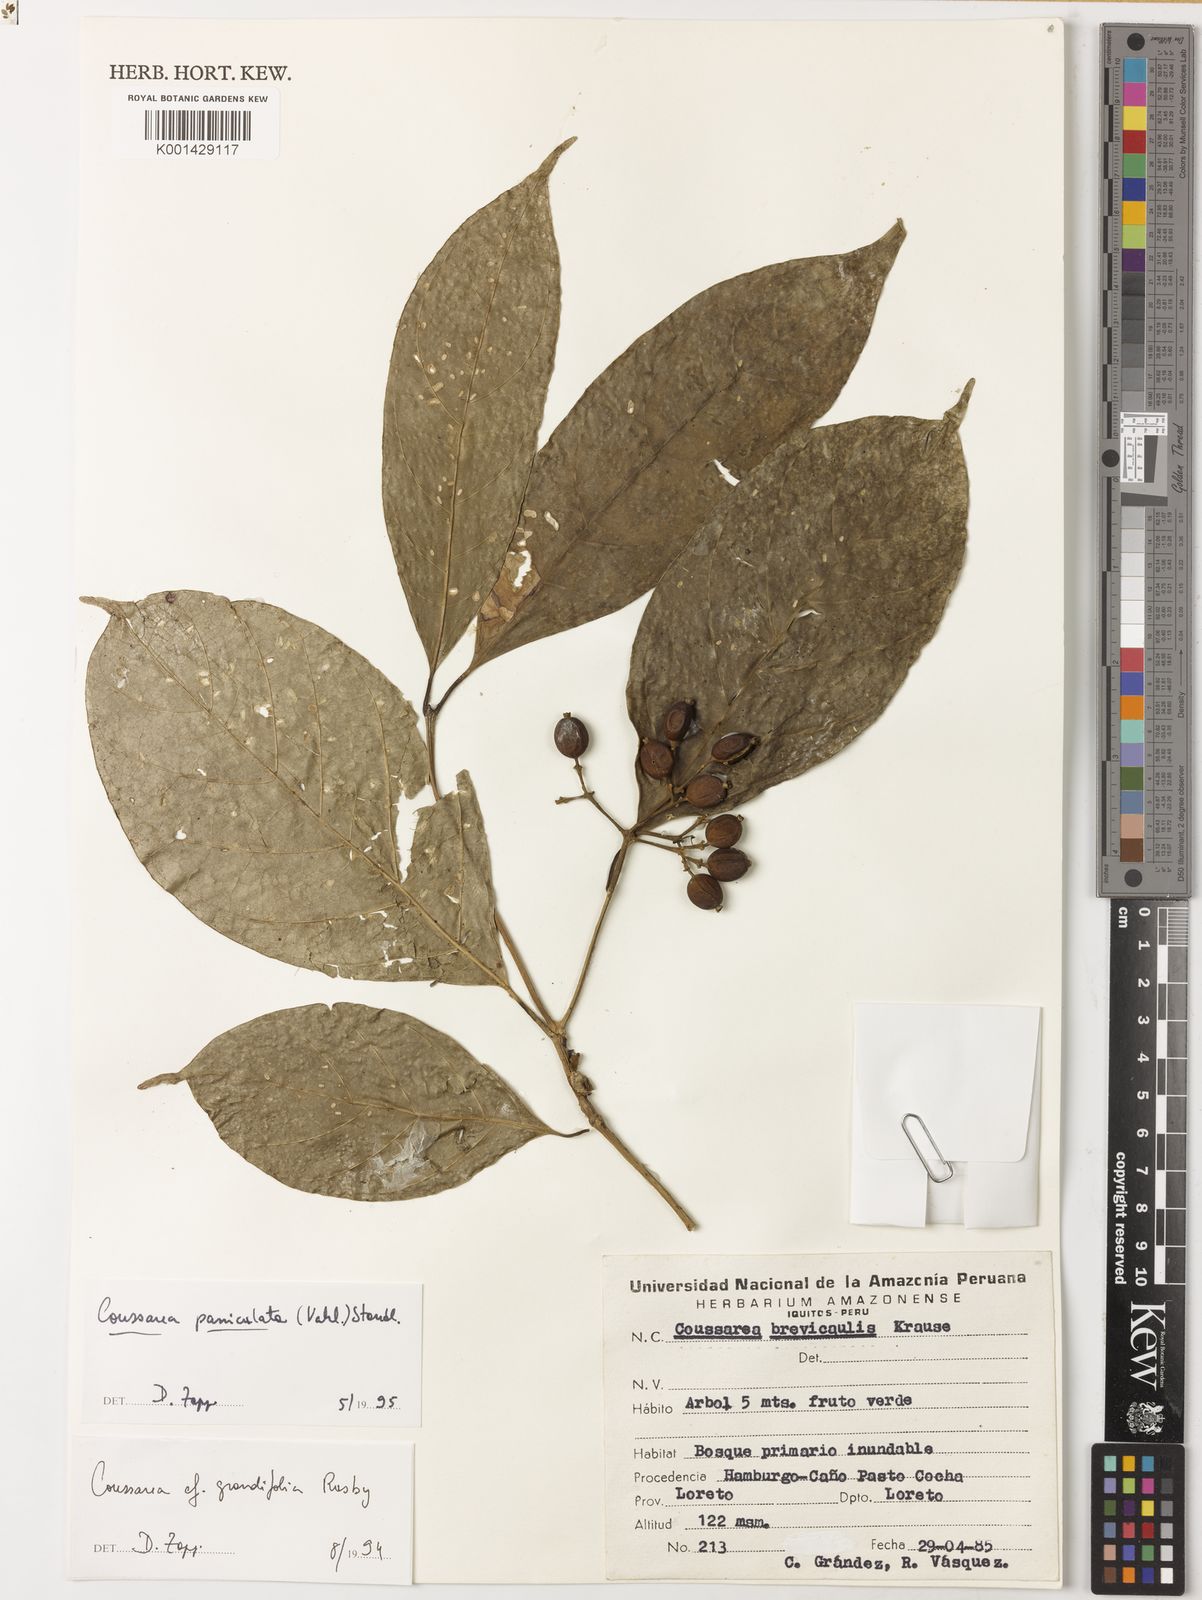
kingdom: Plantae
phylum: Tracheophyta
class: Magnoliopsida
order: Gentianales
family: Rubiaceae
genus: Coussarea
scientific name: Coussarea paniculata
